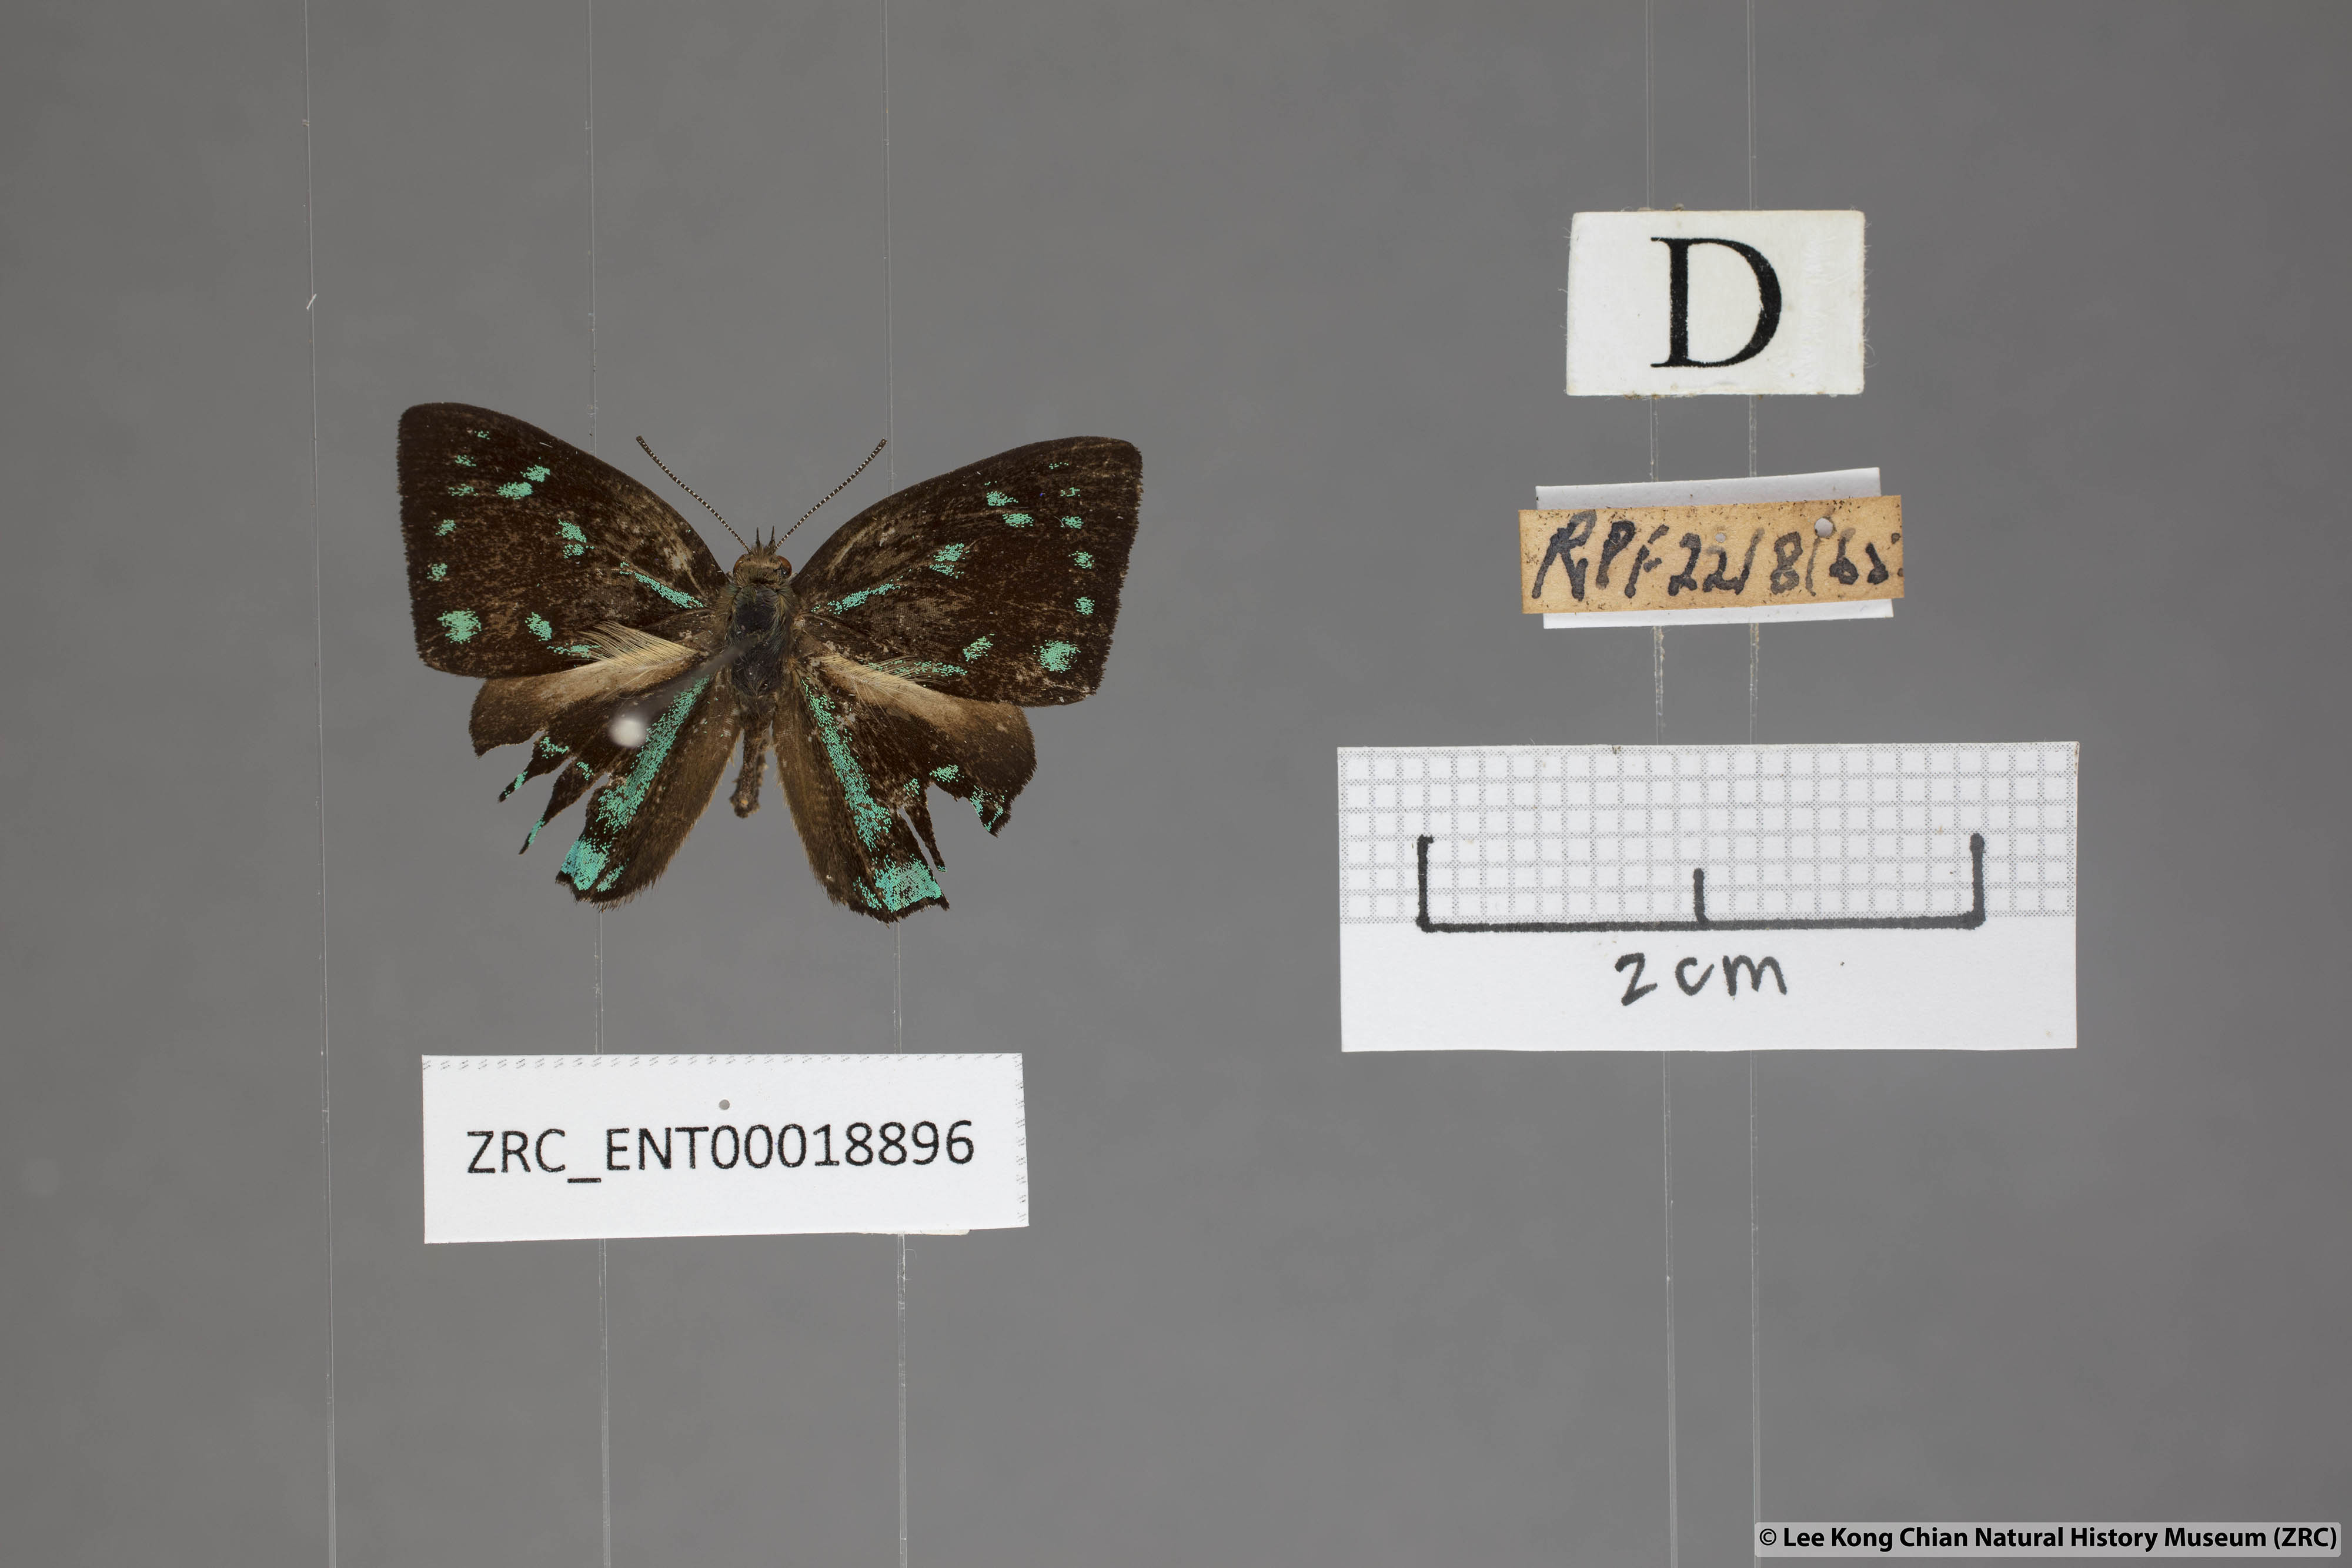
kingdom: Animalia
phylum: Arthropoda
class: Insecta
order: Lepidoptera
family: Lycaenidae
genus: Simiskina
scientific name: Simiskina
